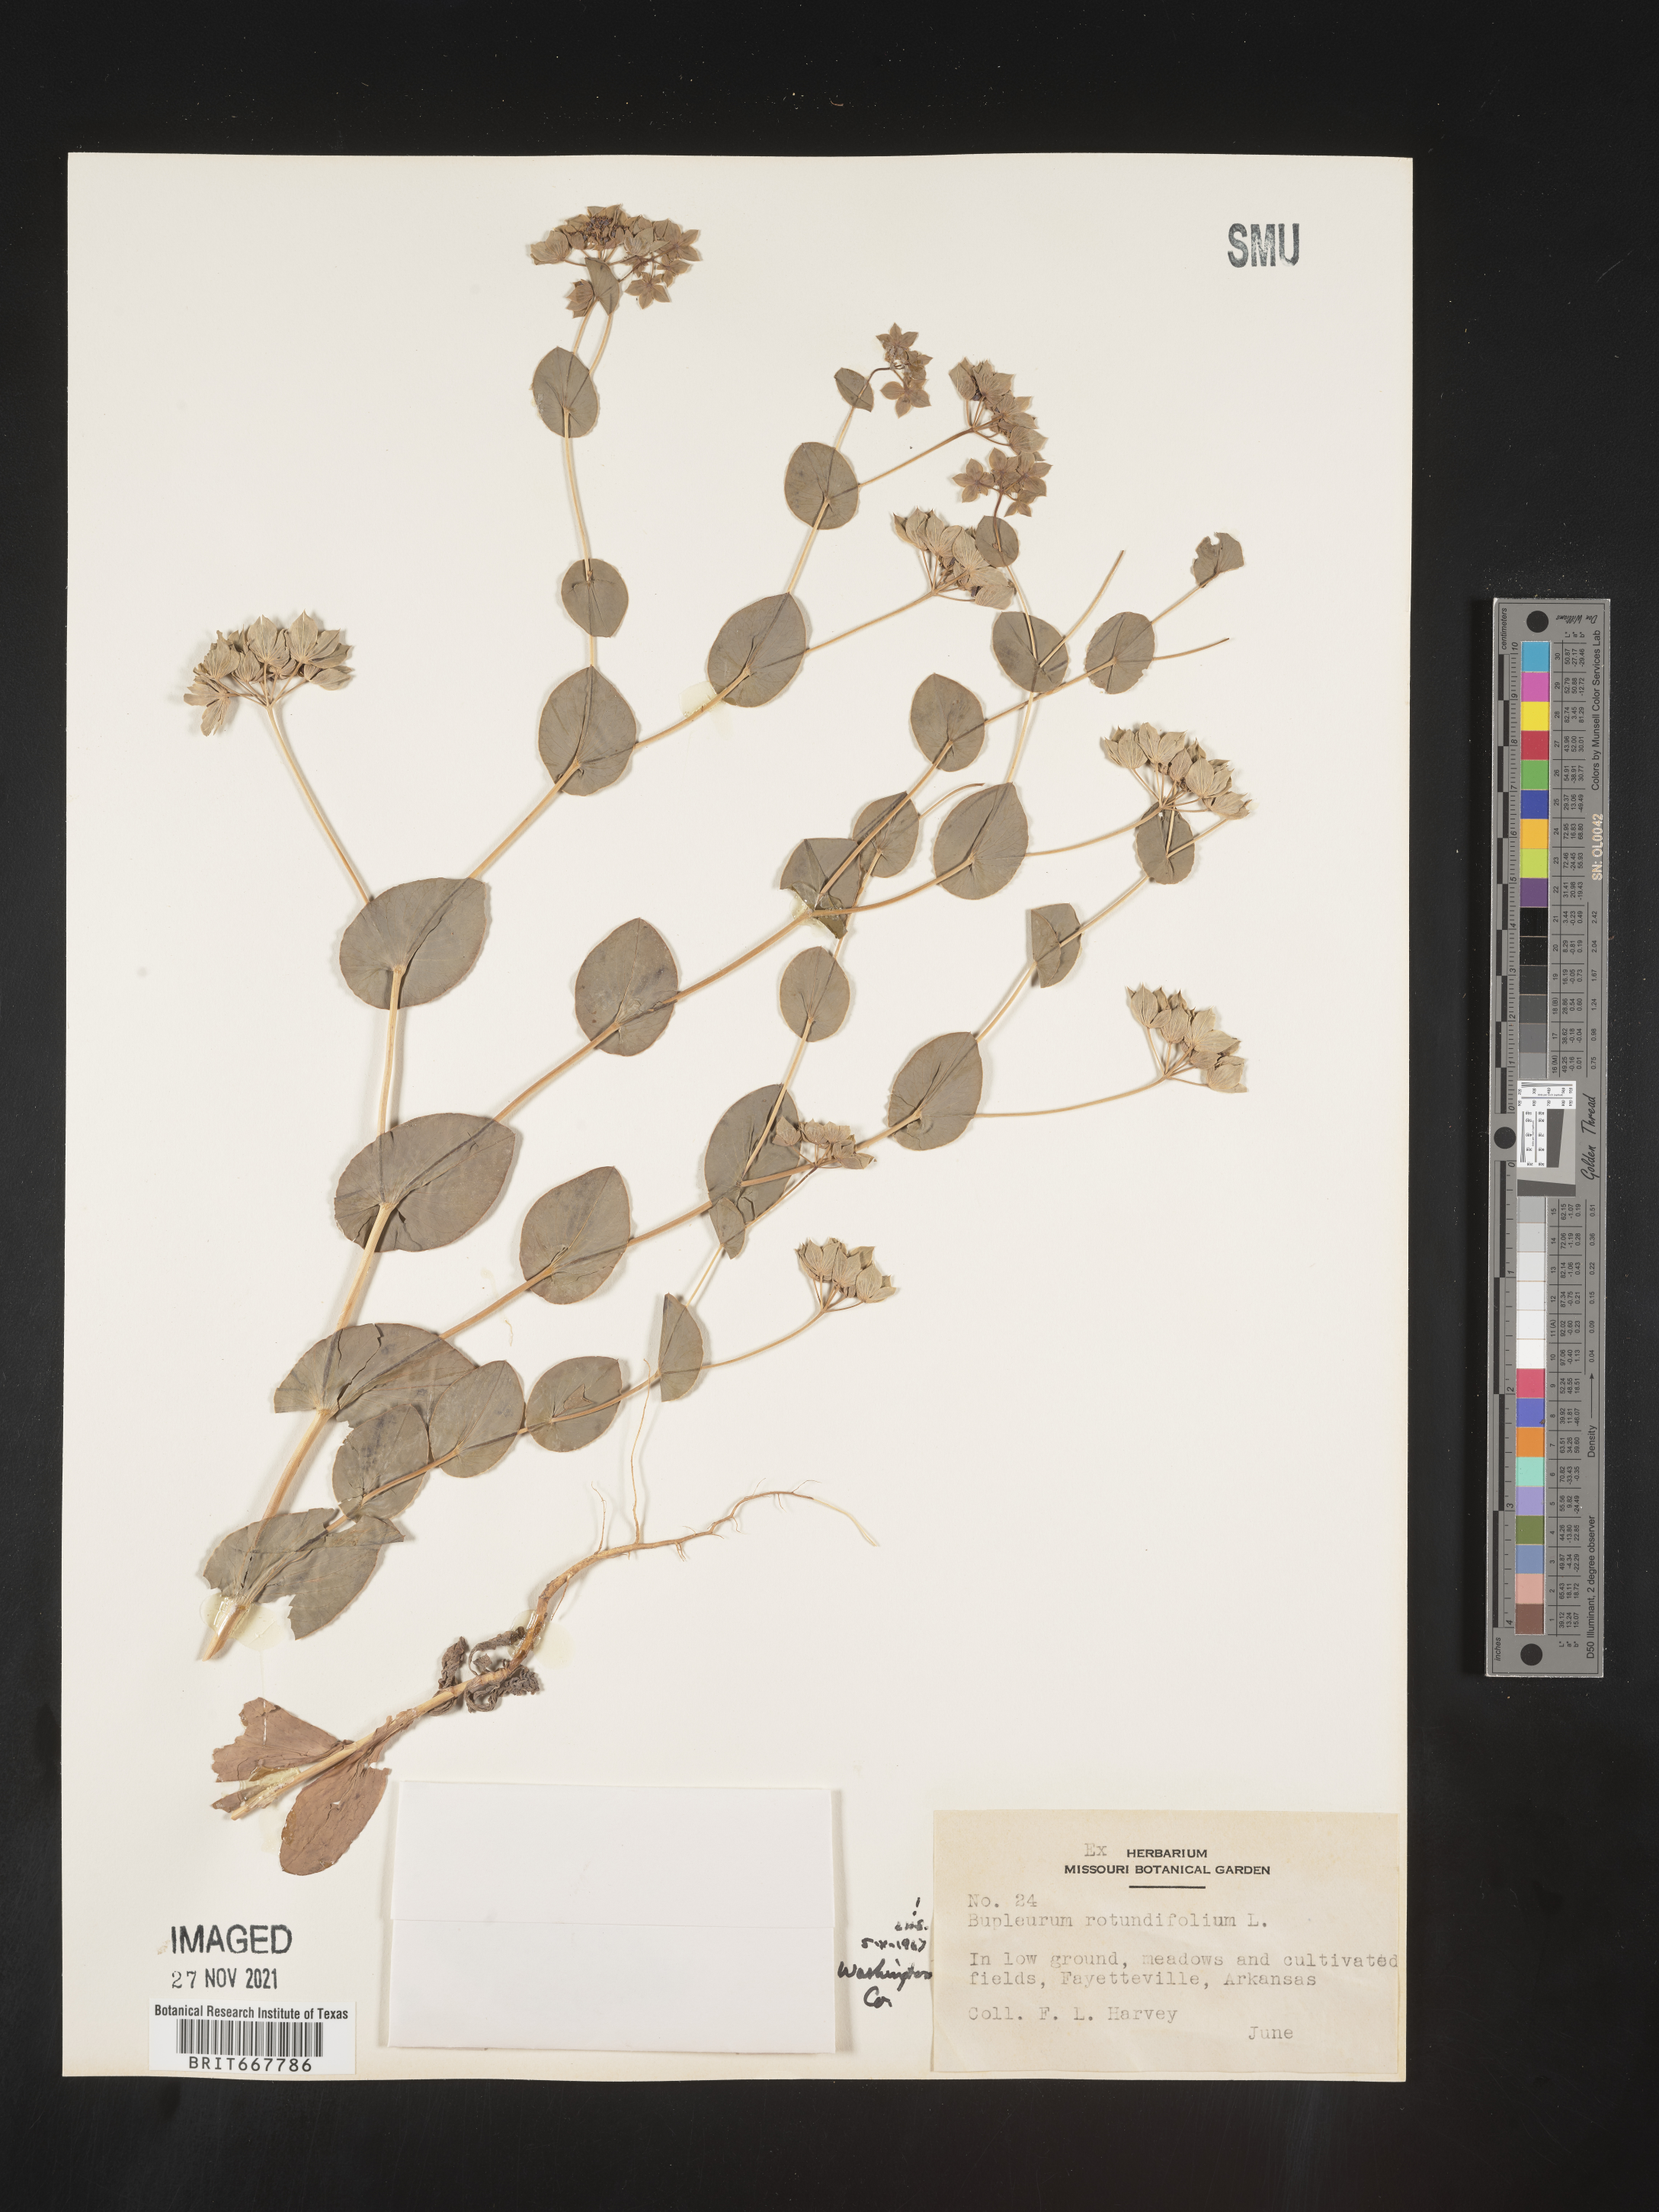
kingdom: Plantae
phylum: Tracheophyta
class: Magnoliopsida
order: Apiales
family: Apiaceae
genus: Bupleurum
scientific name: Bupleurum
